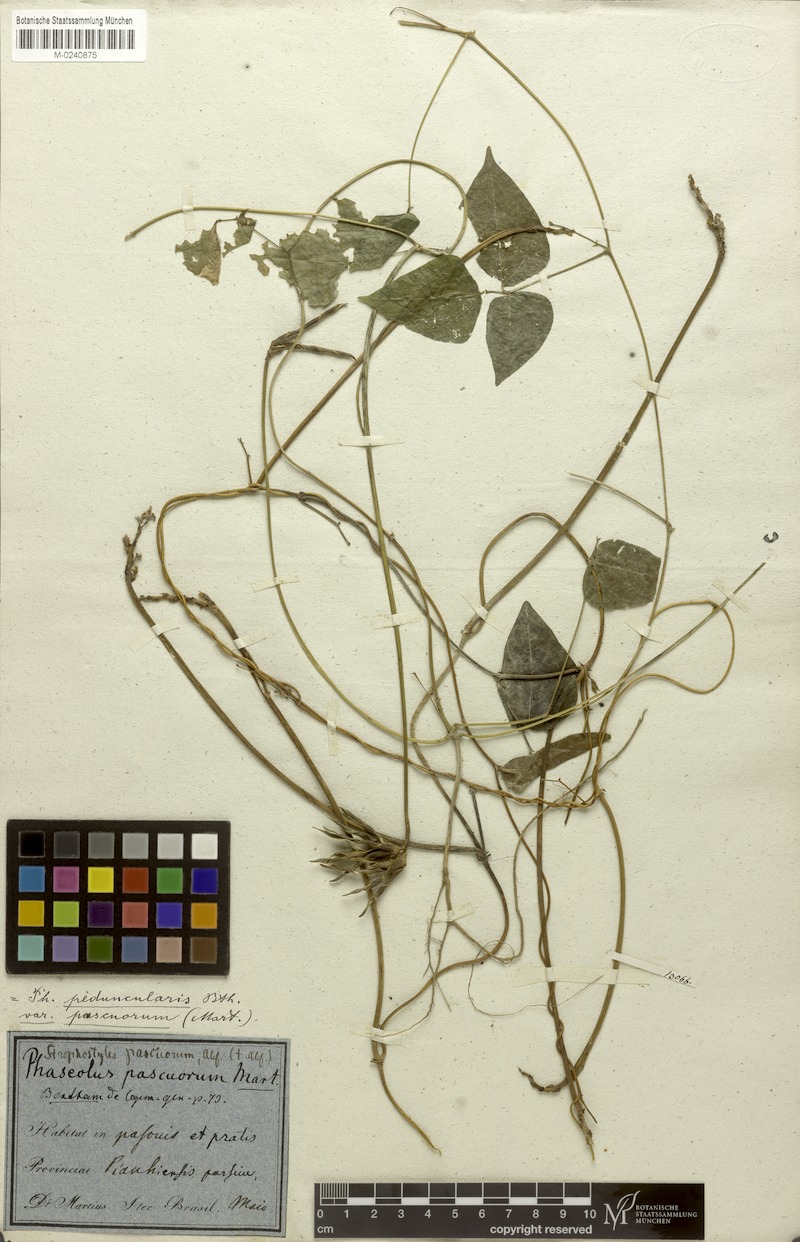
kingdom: Plantae
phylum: Tracheophyta
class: Magnoliopsida
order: Fabales
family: Fabaceae
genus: Ancistrotropis
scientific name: Ancistrotropis peduncularis
